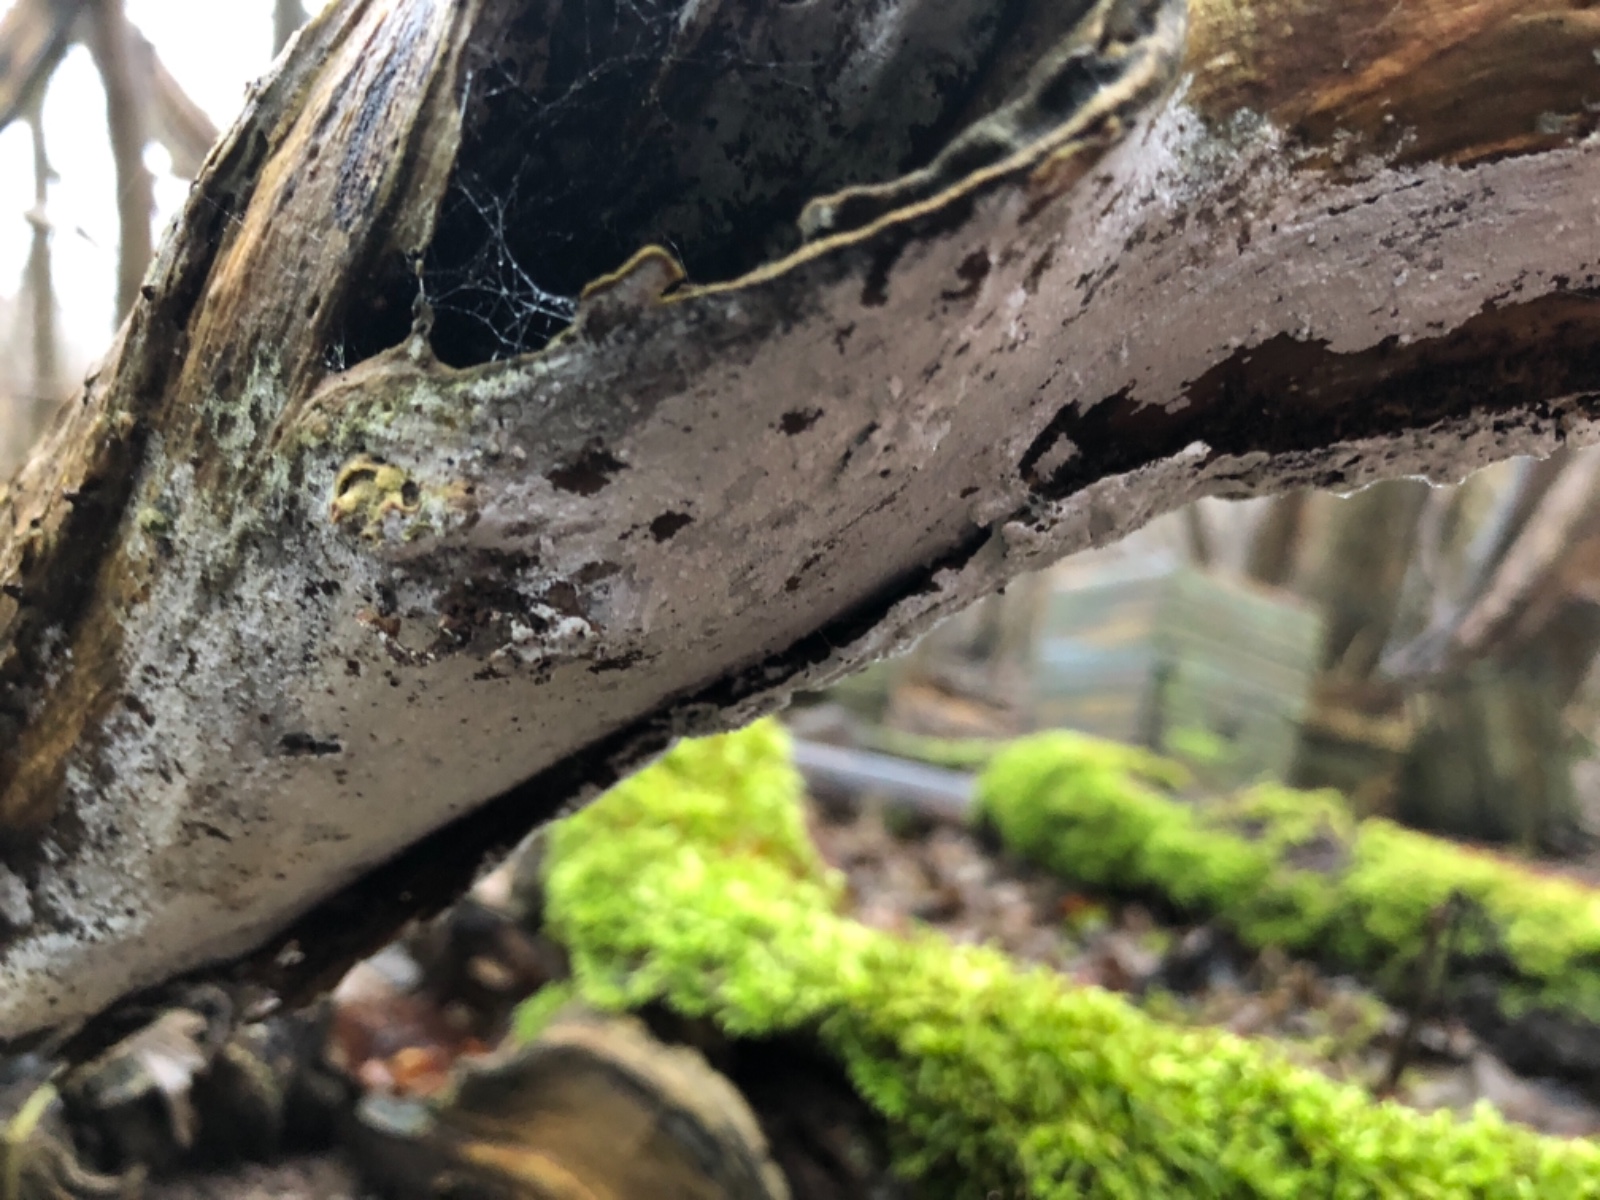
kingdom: Fungi
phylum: Basidiomycota
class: Agaricomycetes
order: Corticiales
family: Corticiaceae
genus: Lyomyces
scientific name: Lyomyces sambuci
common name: almindelig hyldehinde
